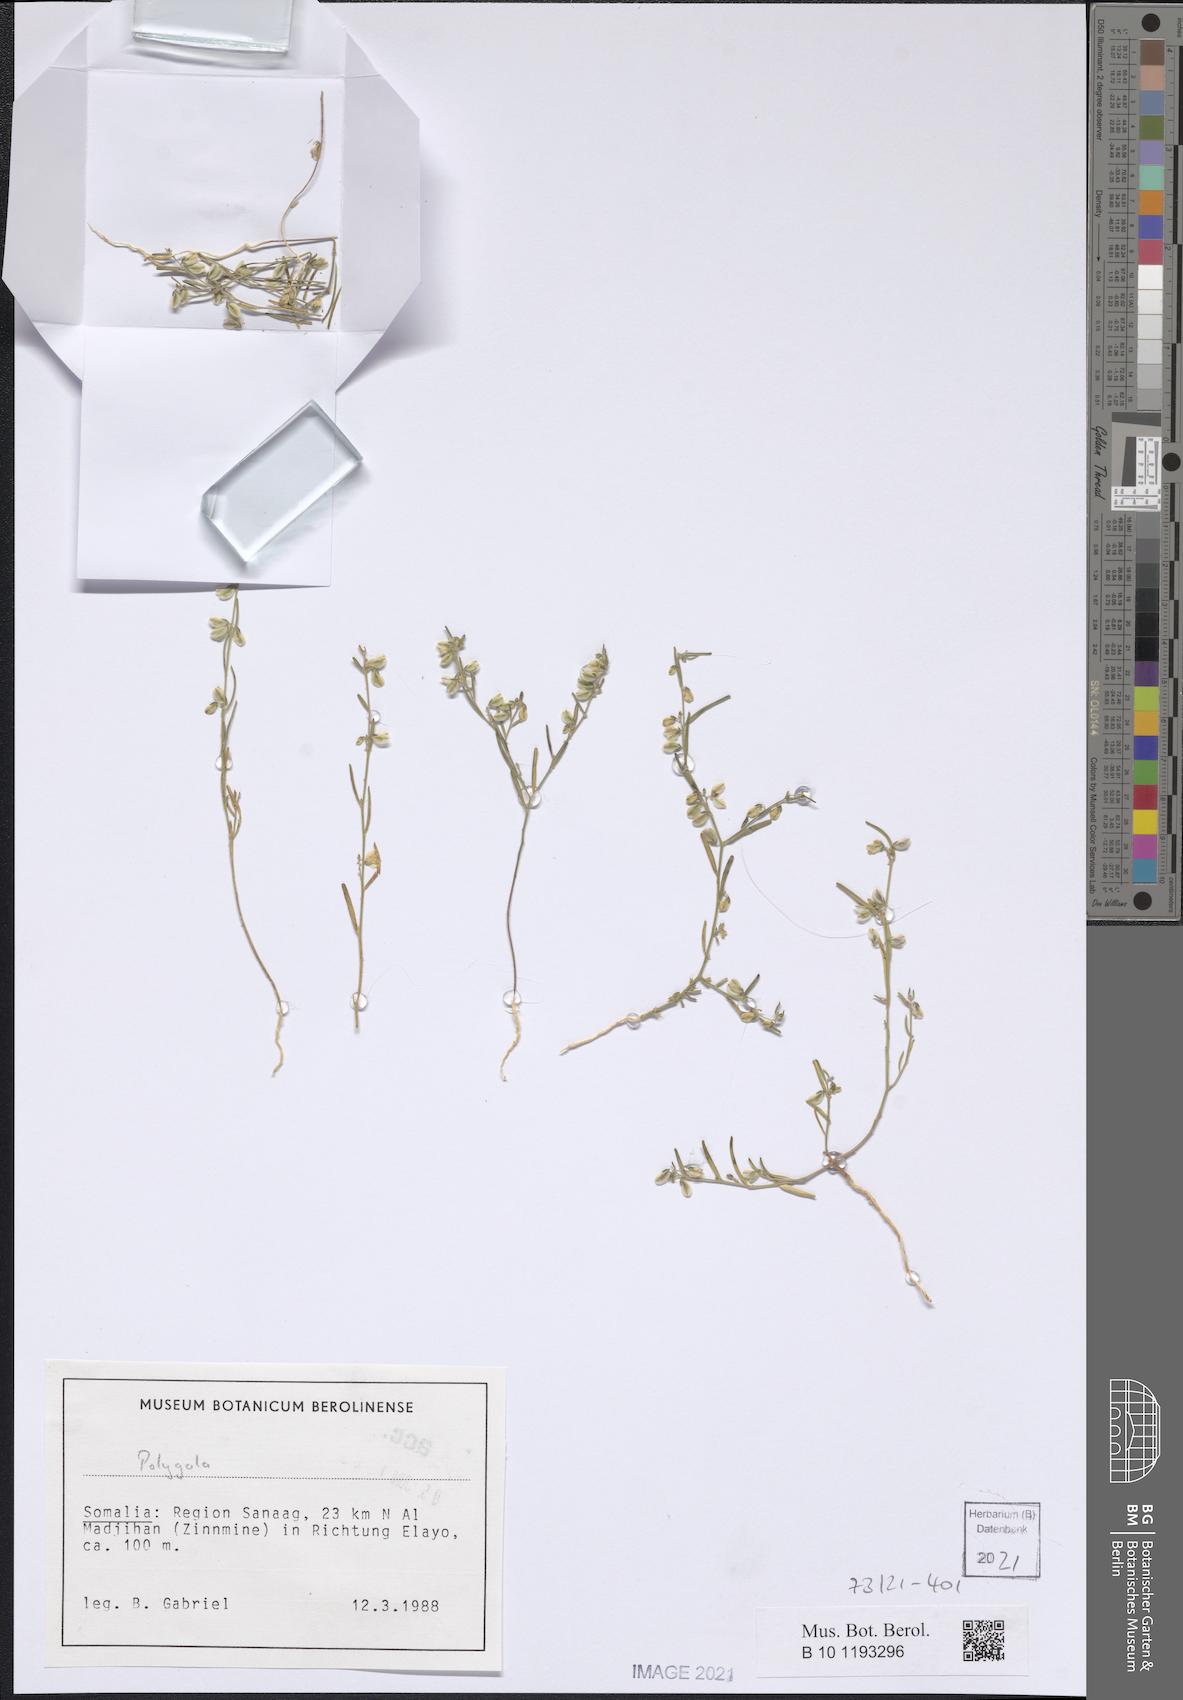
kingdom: Plantae
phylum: Tracheophyta
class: Magnoliopsida
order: Fabales
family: Polygalaceae
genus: Polygala
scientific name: Polygala erioptera
